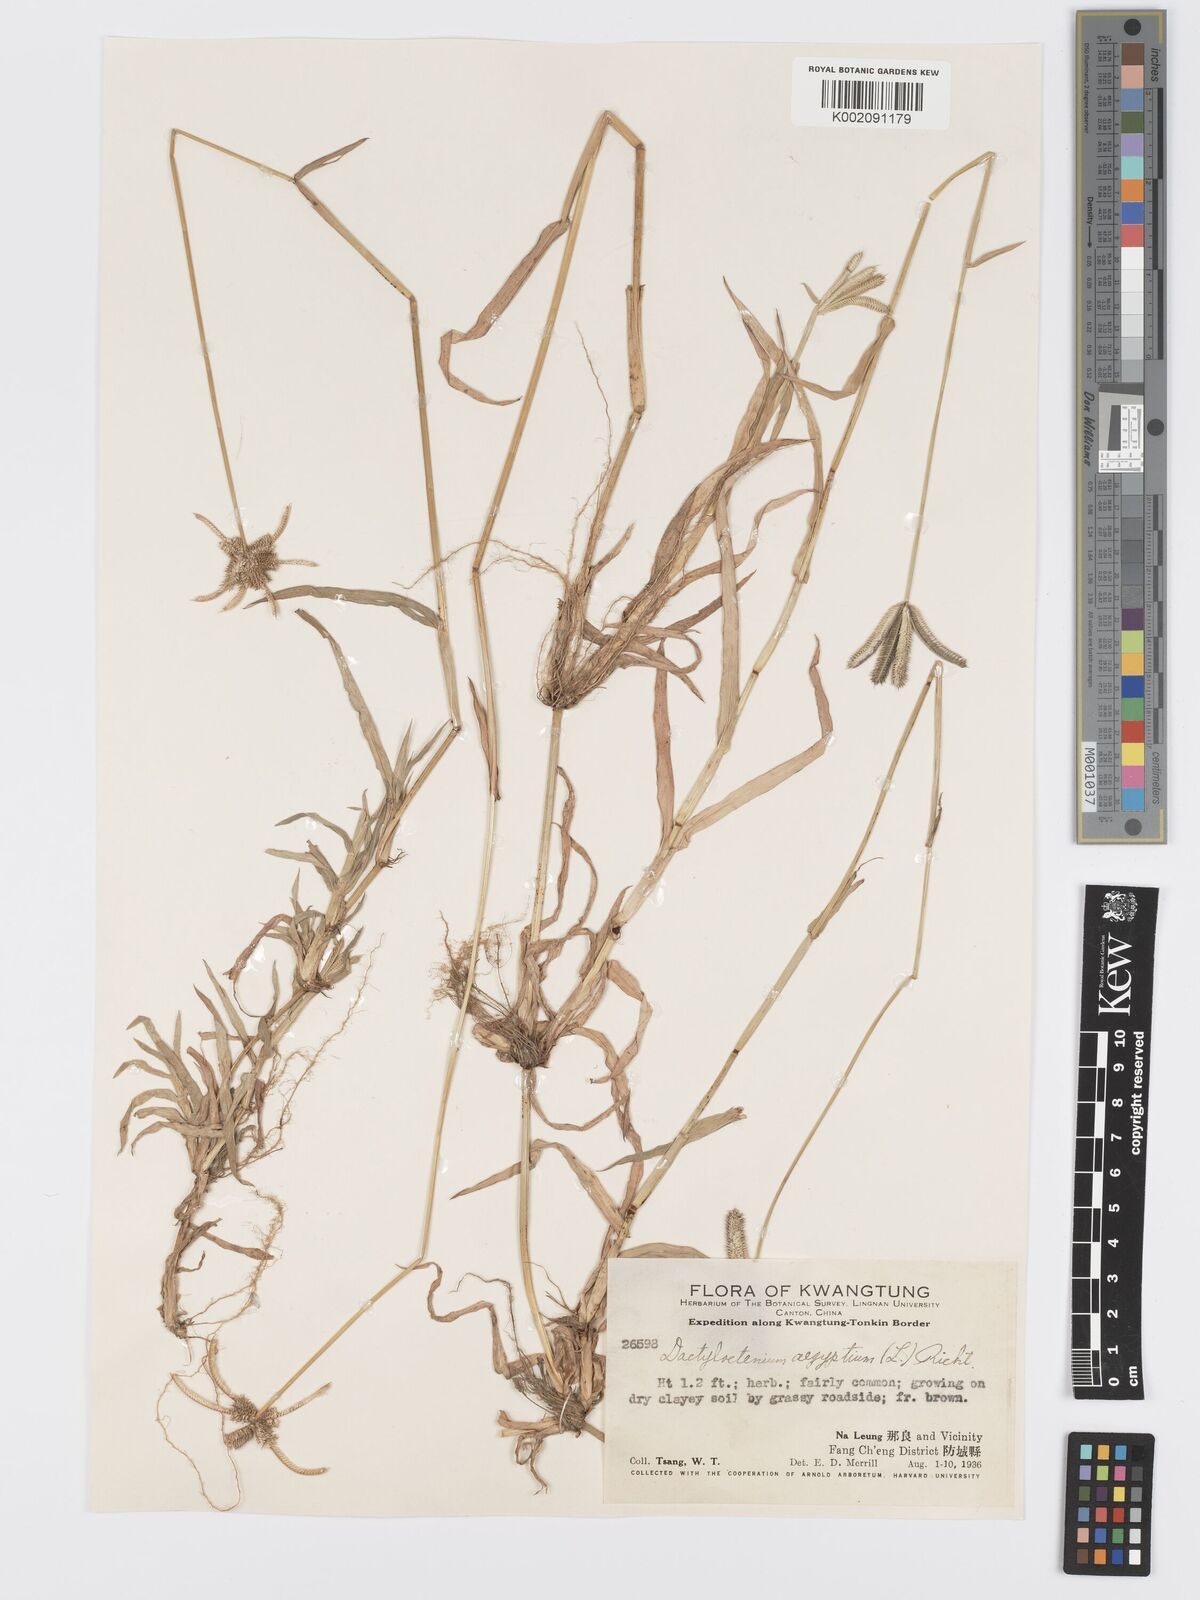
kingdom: Plantae
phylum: Tracheophyta
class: Liliopsida
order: Poales
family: Poaceae
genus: Dactyloctenium
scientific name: Dactyloctenium aegyptium
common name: Egyptian grass
